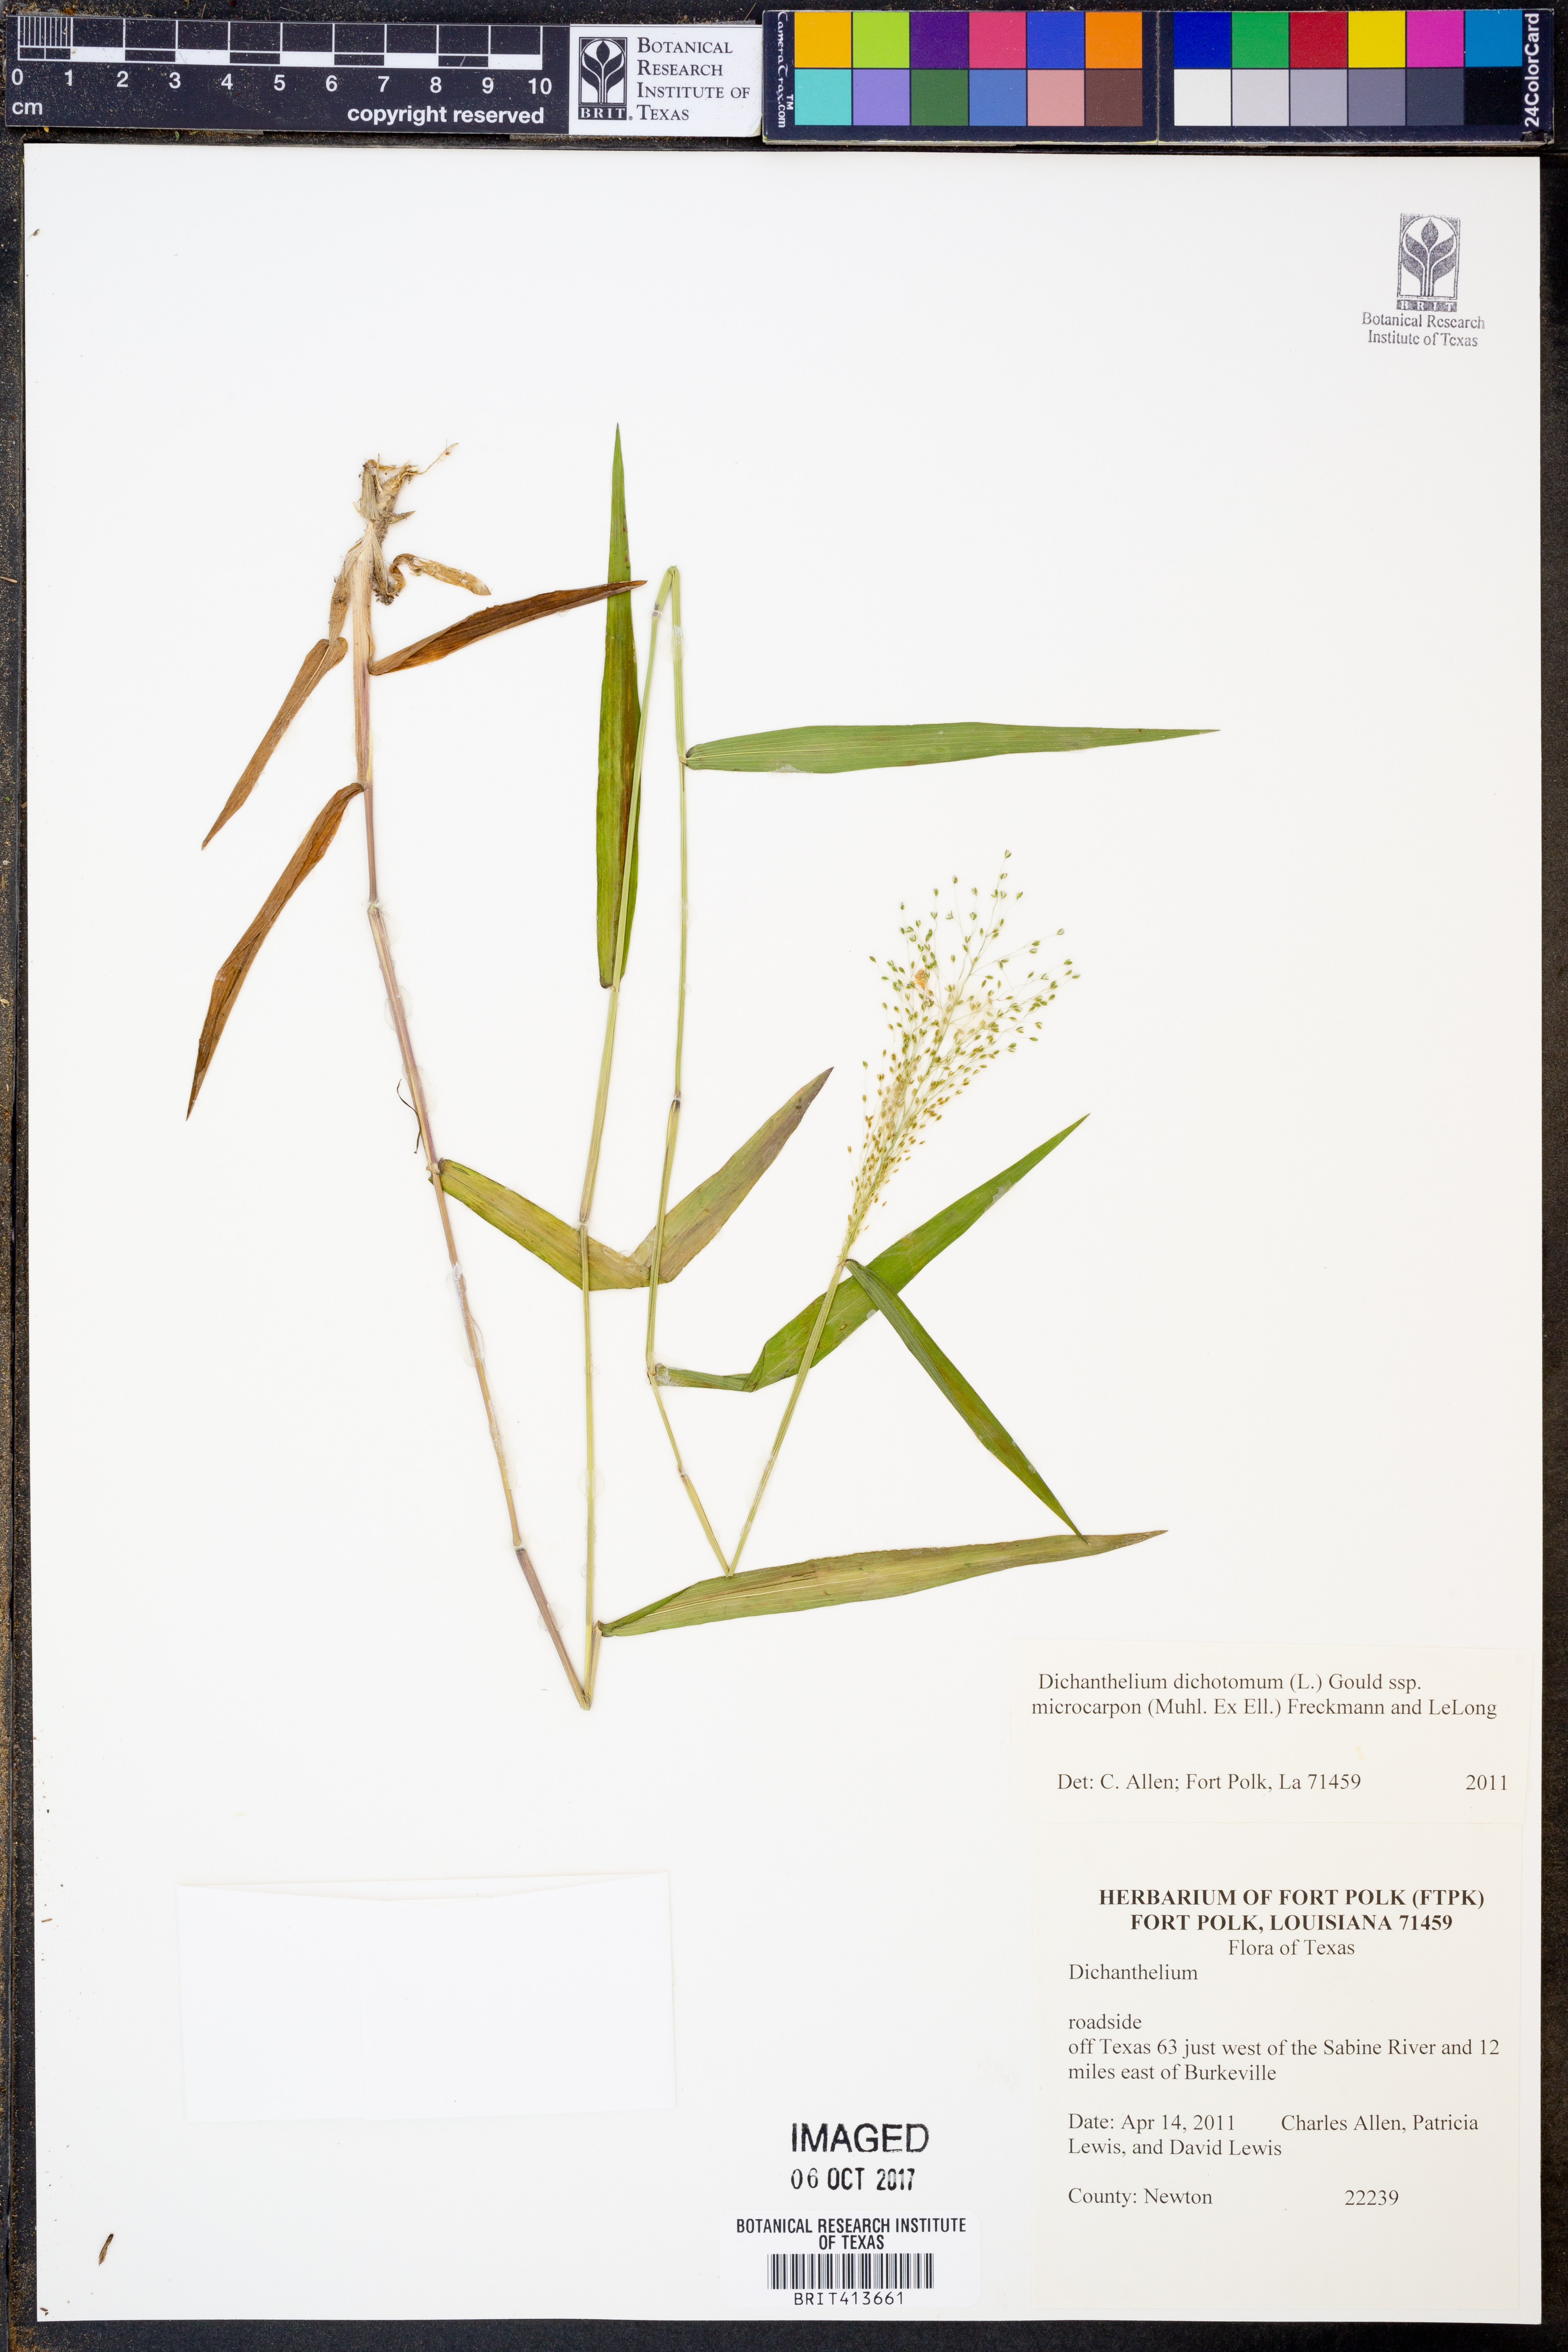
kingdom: Plantae
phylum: Tracheophyta
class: Liliopsida
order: Poales
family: Poaceae
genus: Dichanthelium
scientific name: Dichanthelium microcarpon
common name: Small-fruited witchgrass
